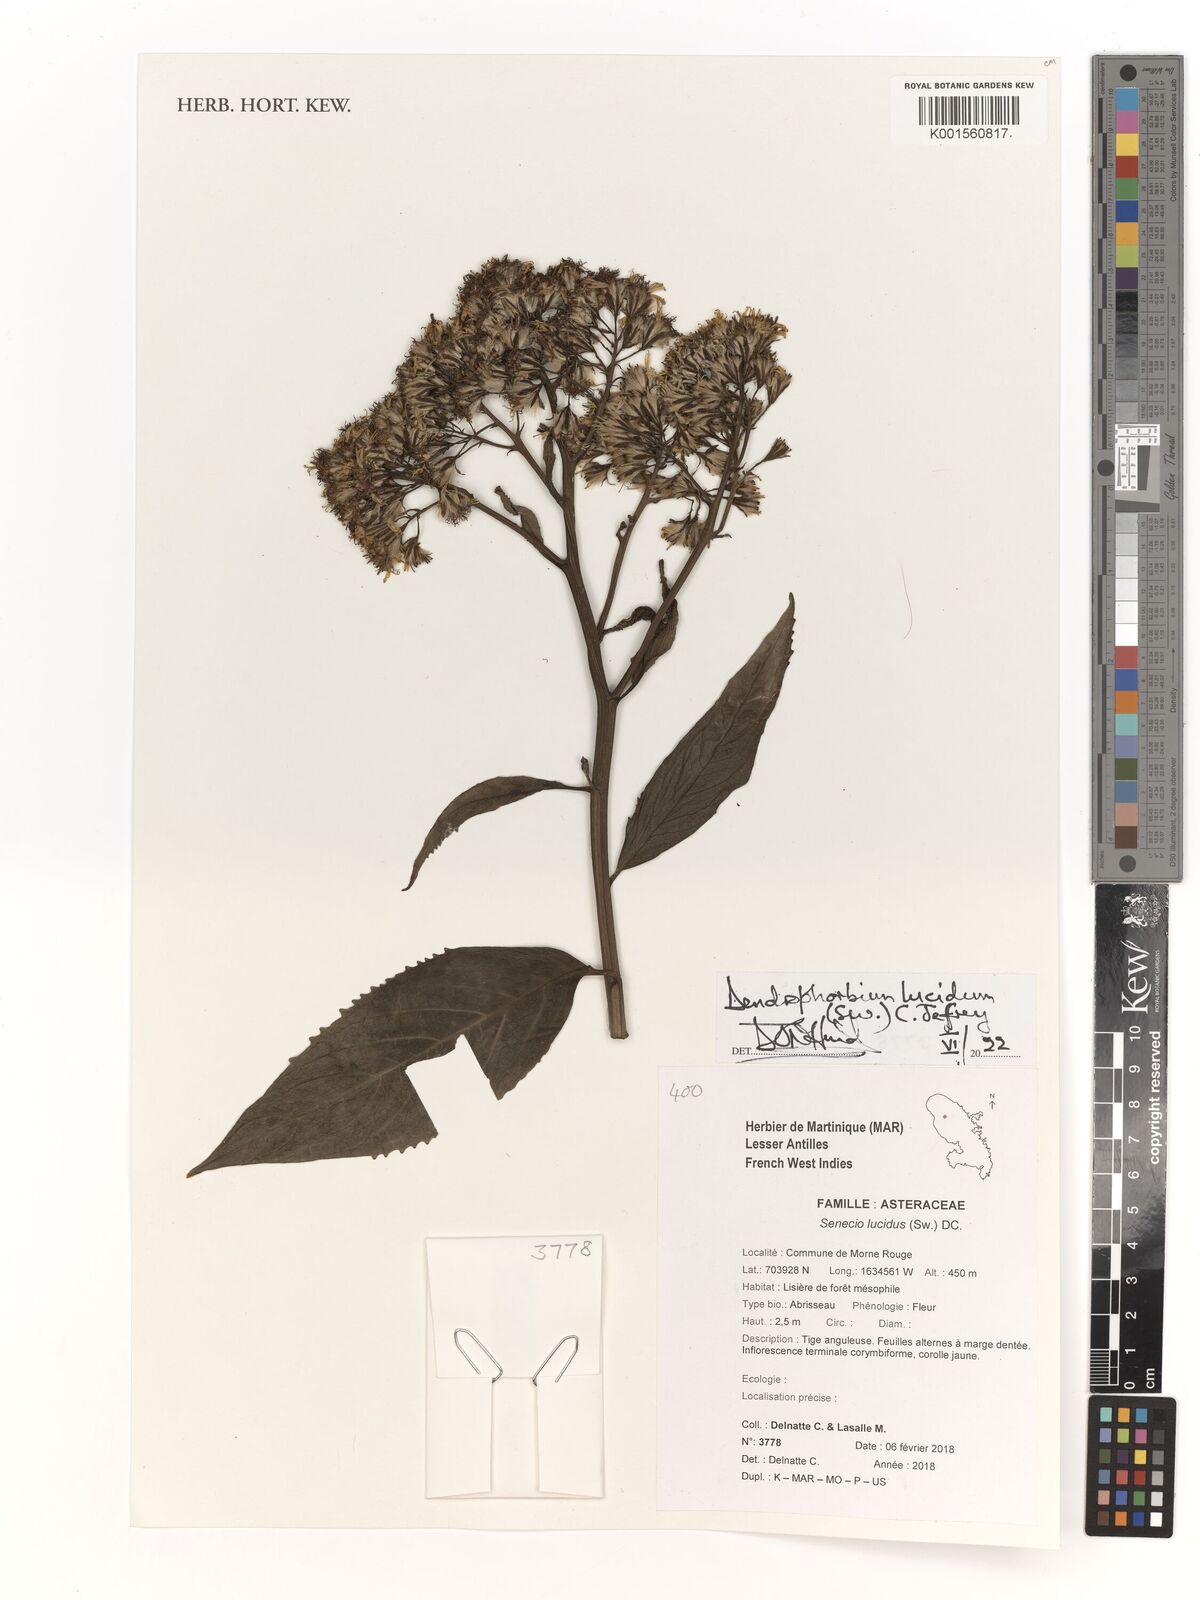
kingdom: Plantae
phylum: Tracheophyta
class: Magnoliopsida
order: Asterales
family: Asteraceae
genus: Dendrophorbium
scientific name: Dendrophorbium lucidum
